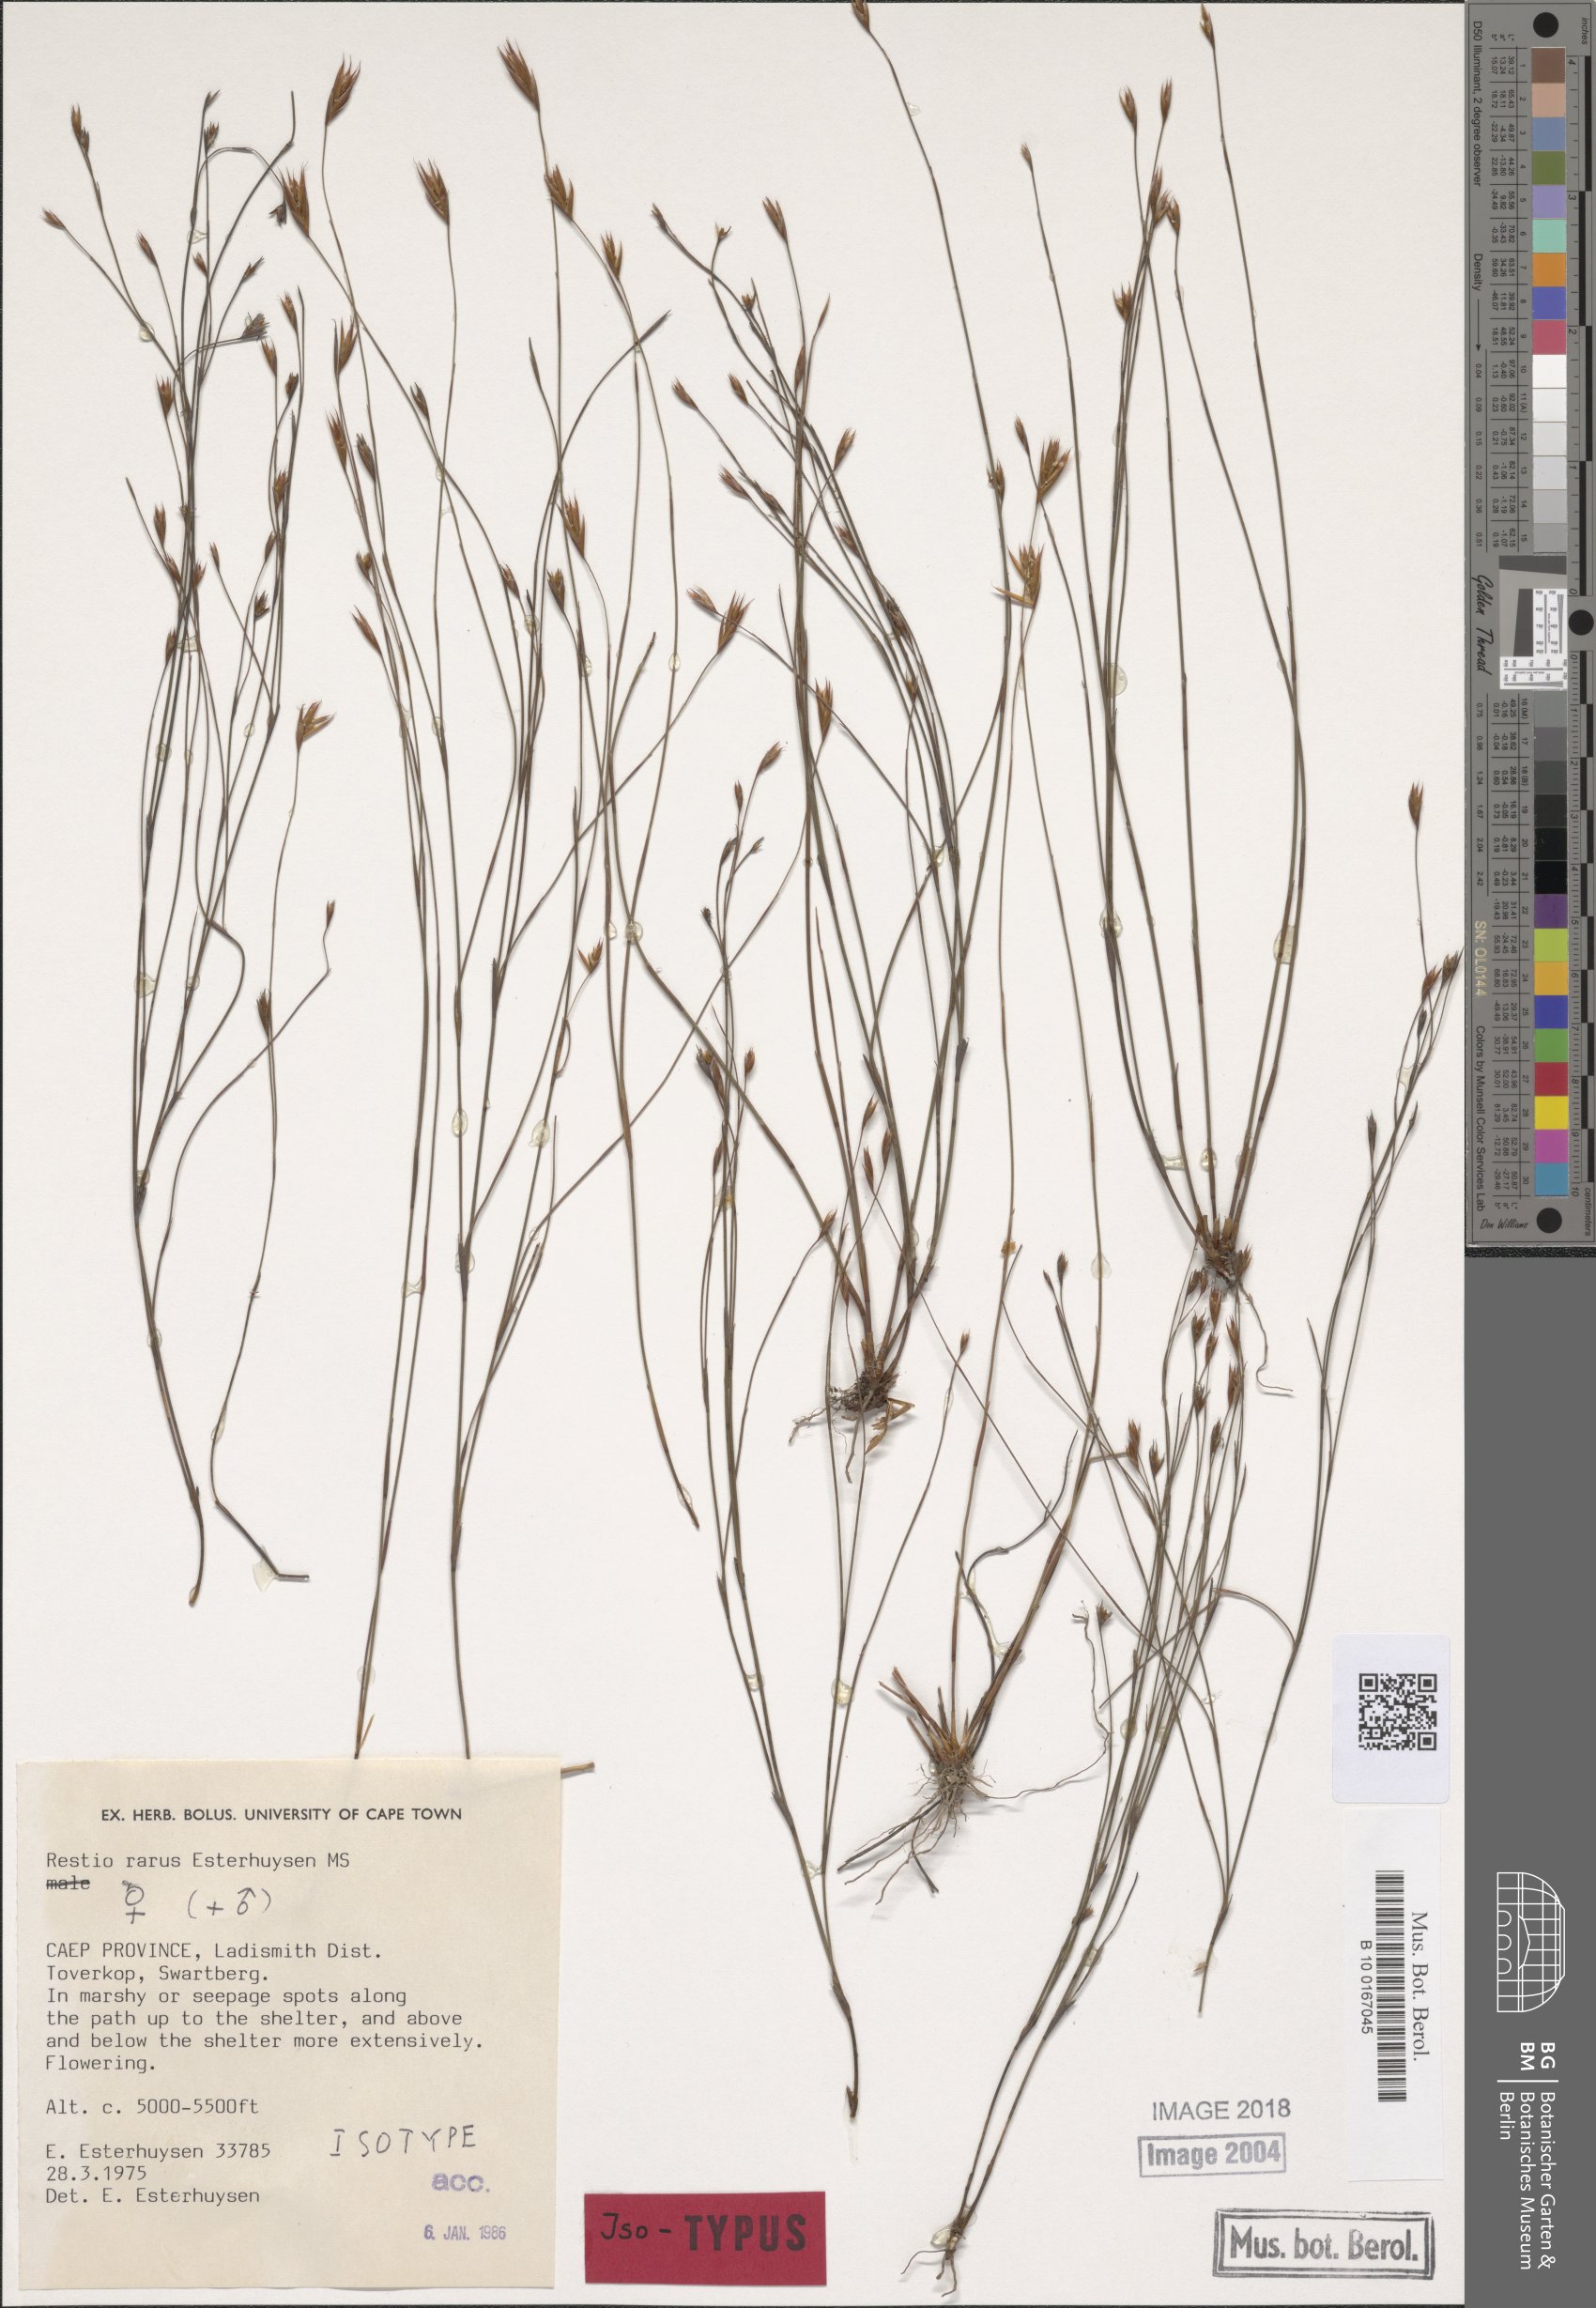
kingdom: Plantae
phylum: Tracheophyta
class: Liliopsida
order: Poales
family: Restionaceae
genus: Restio
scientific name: Restio rarus
